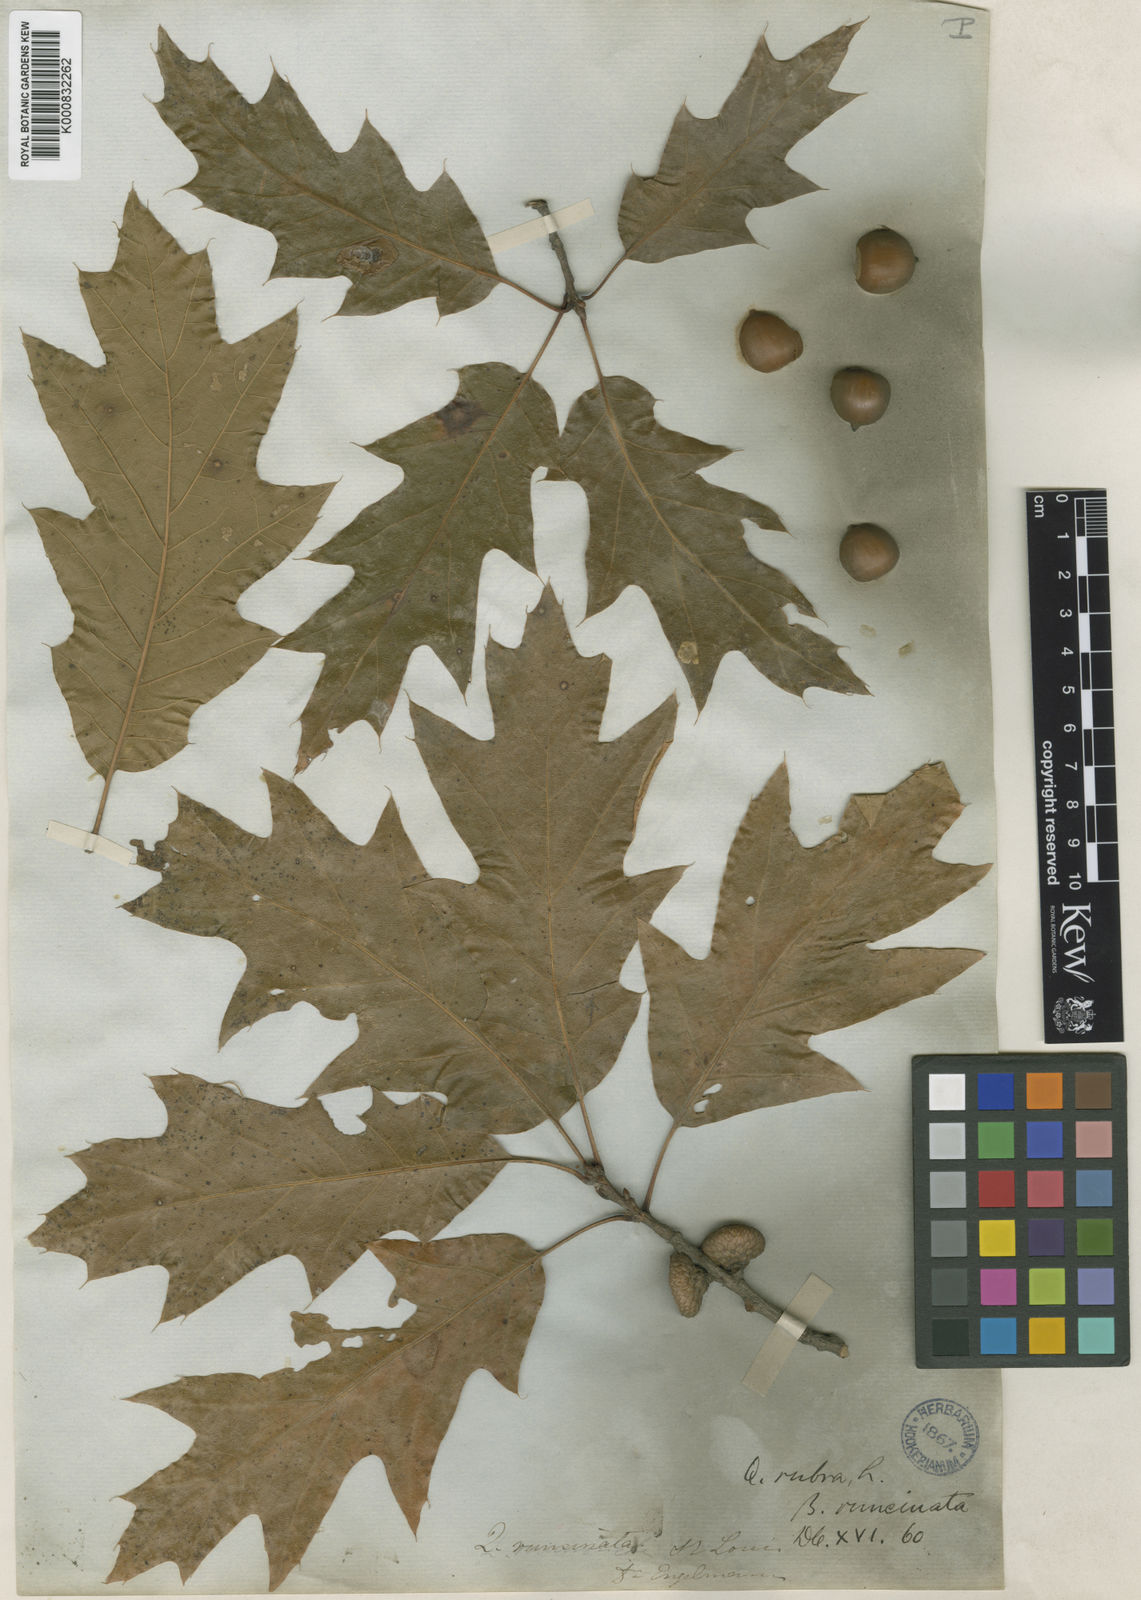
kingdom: Plantae
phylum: Tracheophyta
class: Magnoliopsida
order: Fagales
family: Fagaceae
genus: Quercus
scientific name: Quercus imbricaria
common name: Shingle oak
